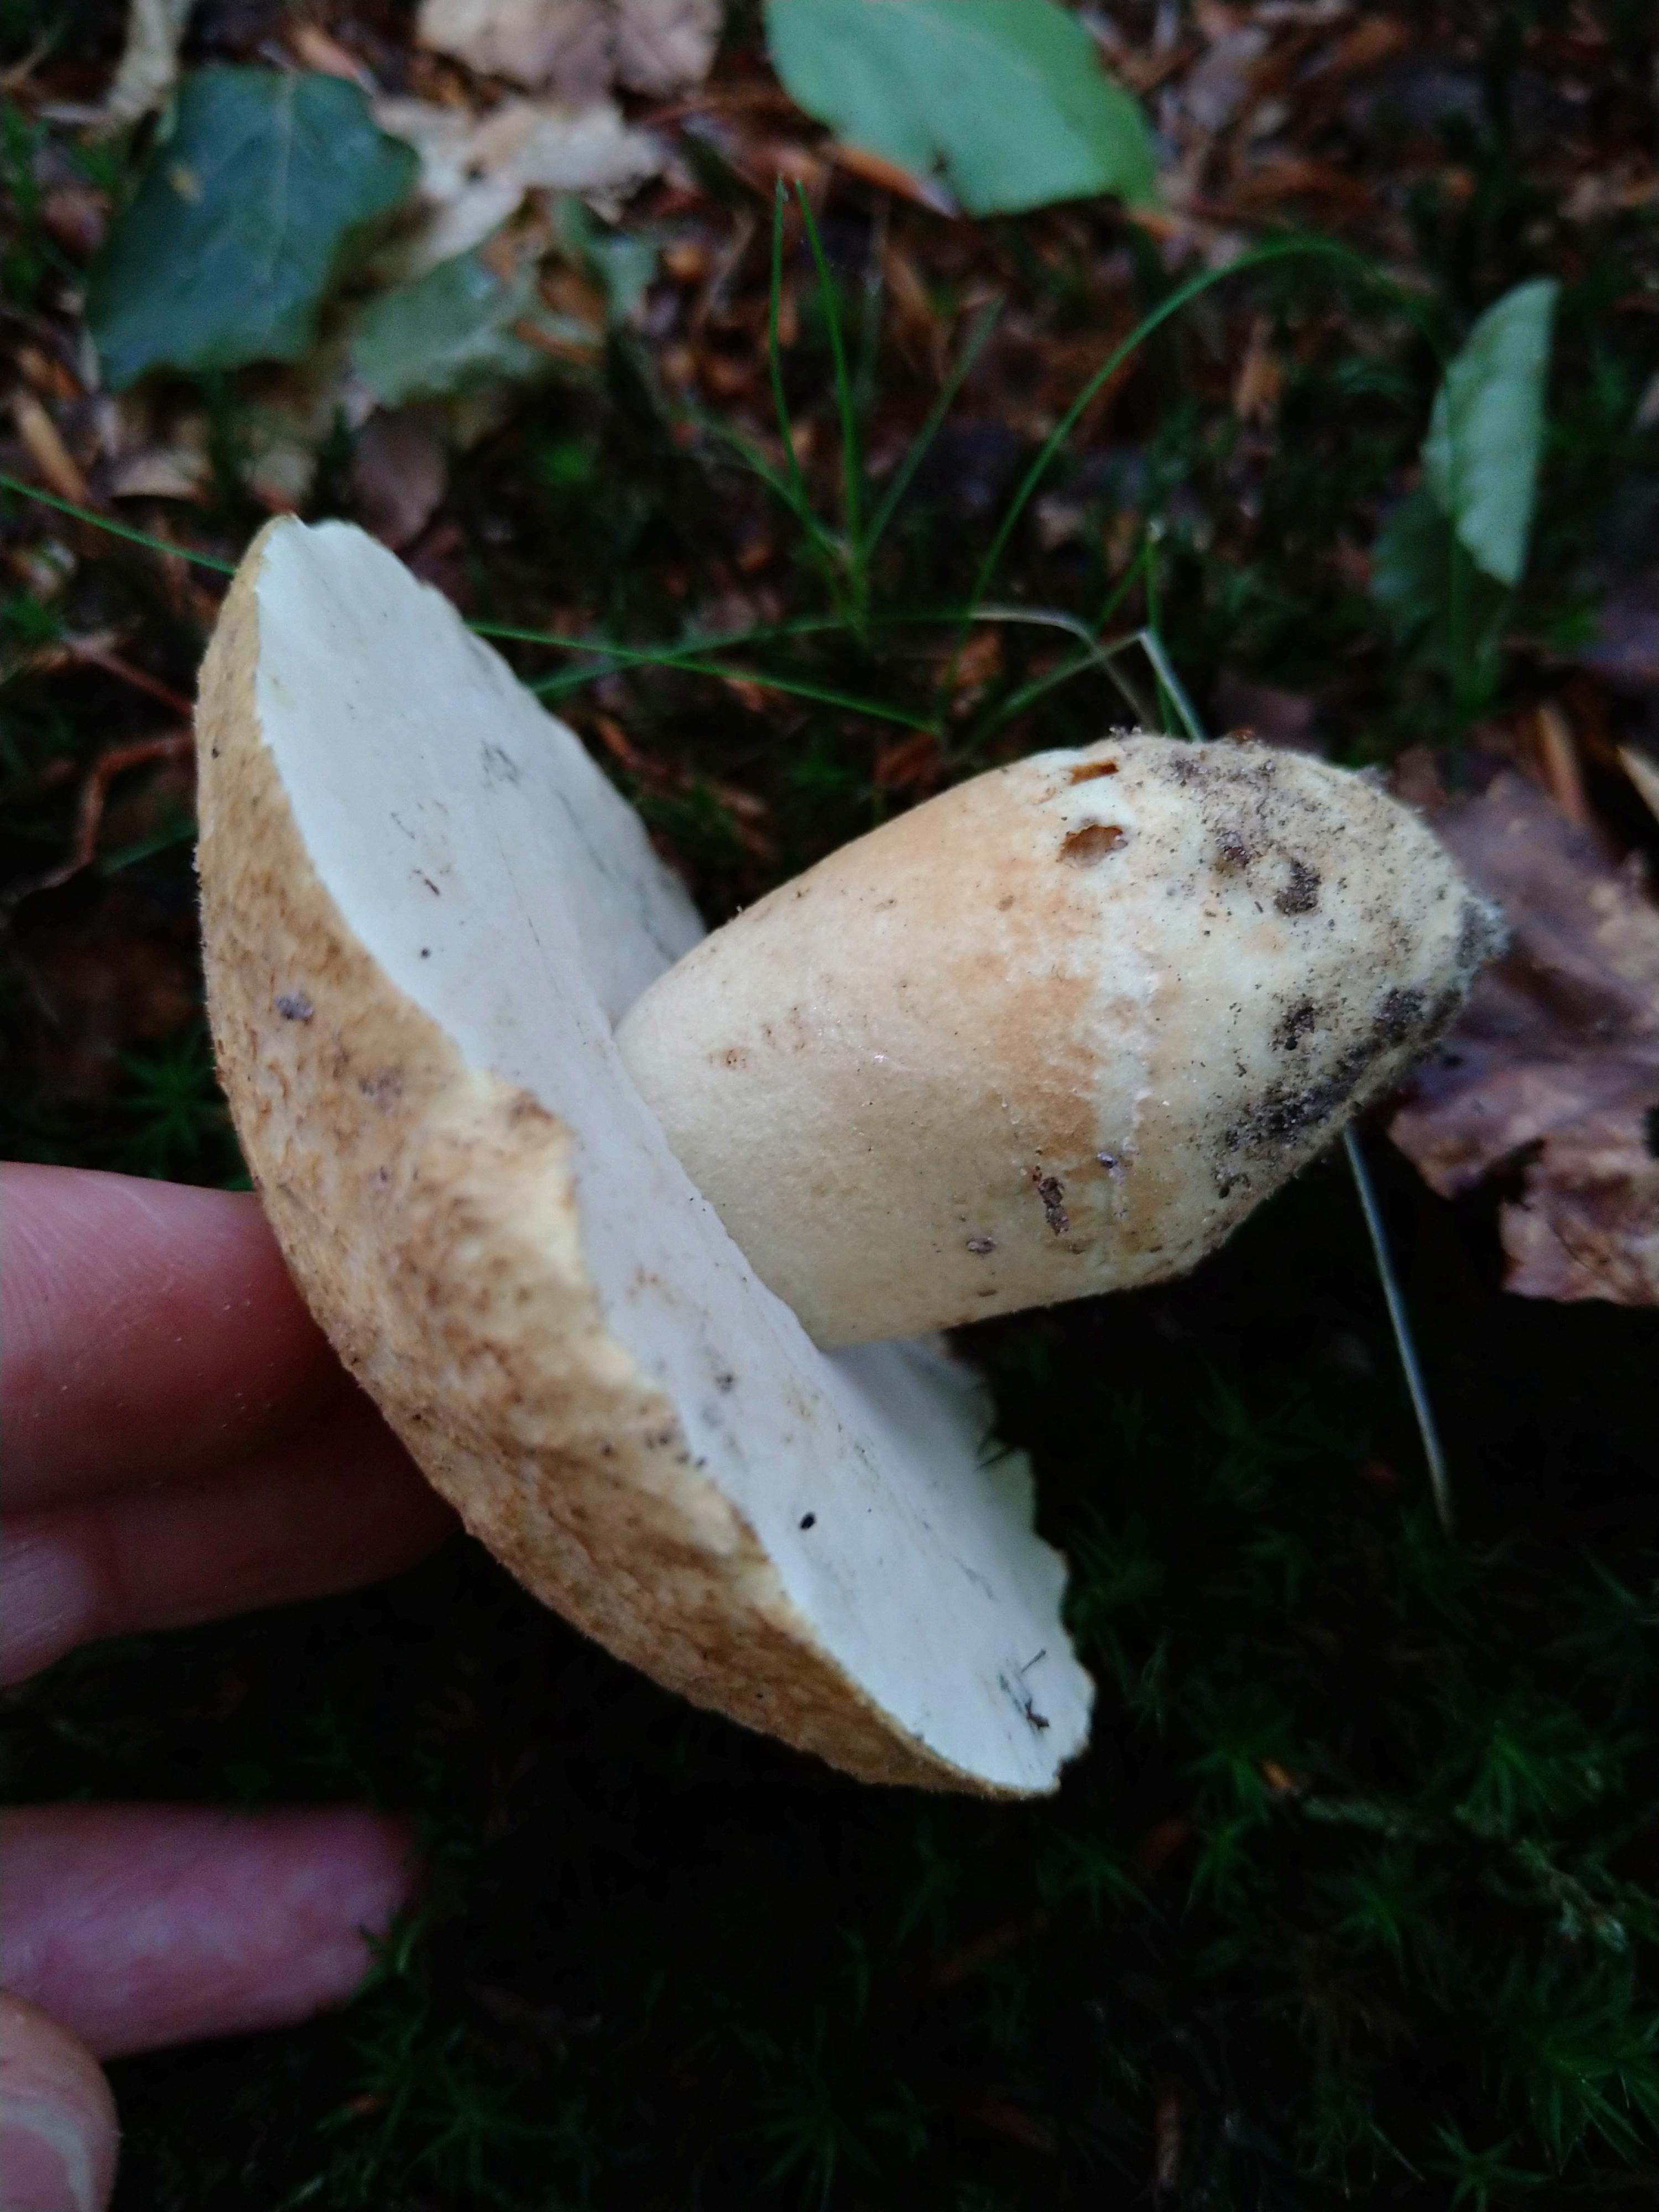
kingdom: Fungi
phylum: Basidiomycota
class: Agaricomycetes
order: Boletales
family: Gyroporaceae
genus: Gyroporus
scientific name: Gyroporus cyanescens
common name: blånende kammerrørhat
